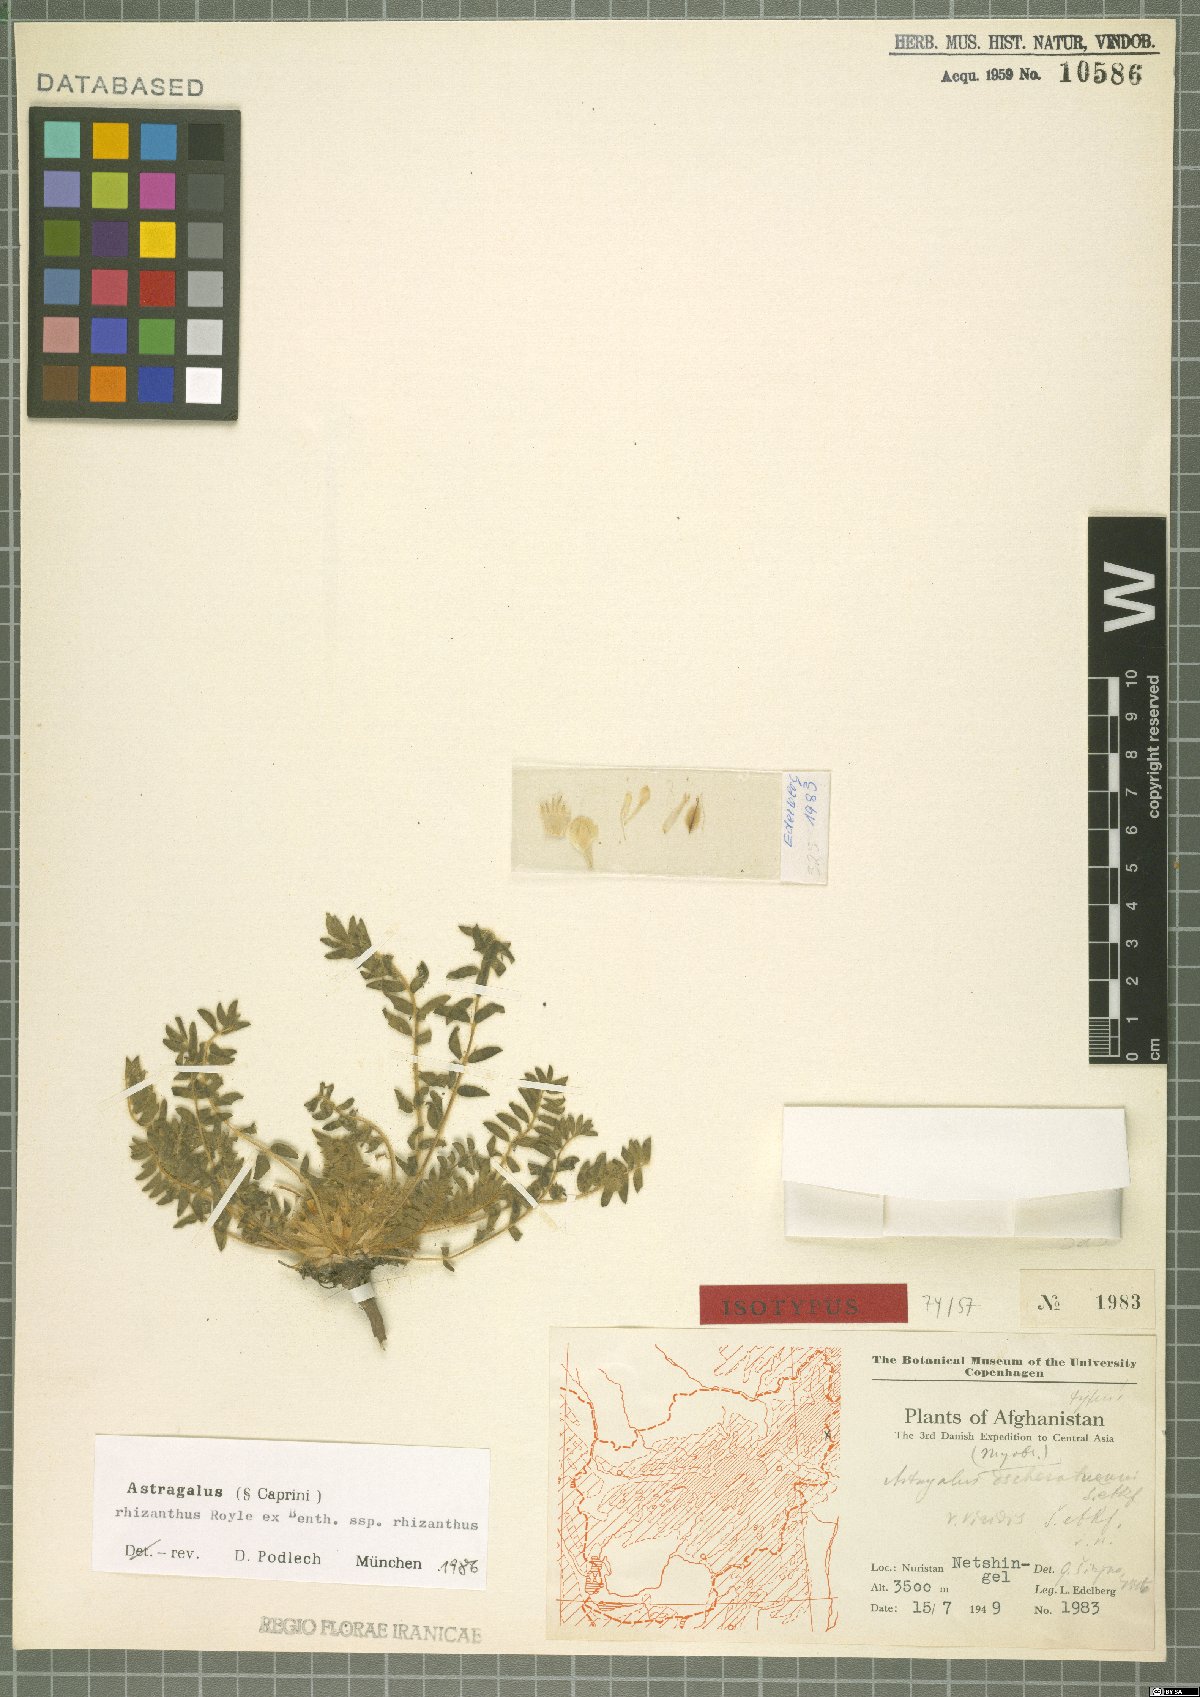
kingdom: Plantae
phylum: Tracheophyta
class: Magnoliopsida
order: Fabales
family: Fabaceae
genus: Astragalus
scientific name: Astragalus rhizocephalus
